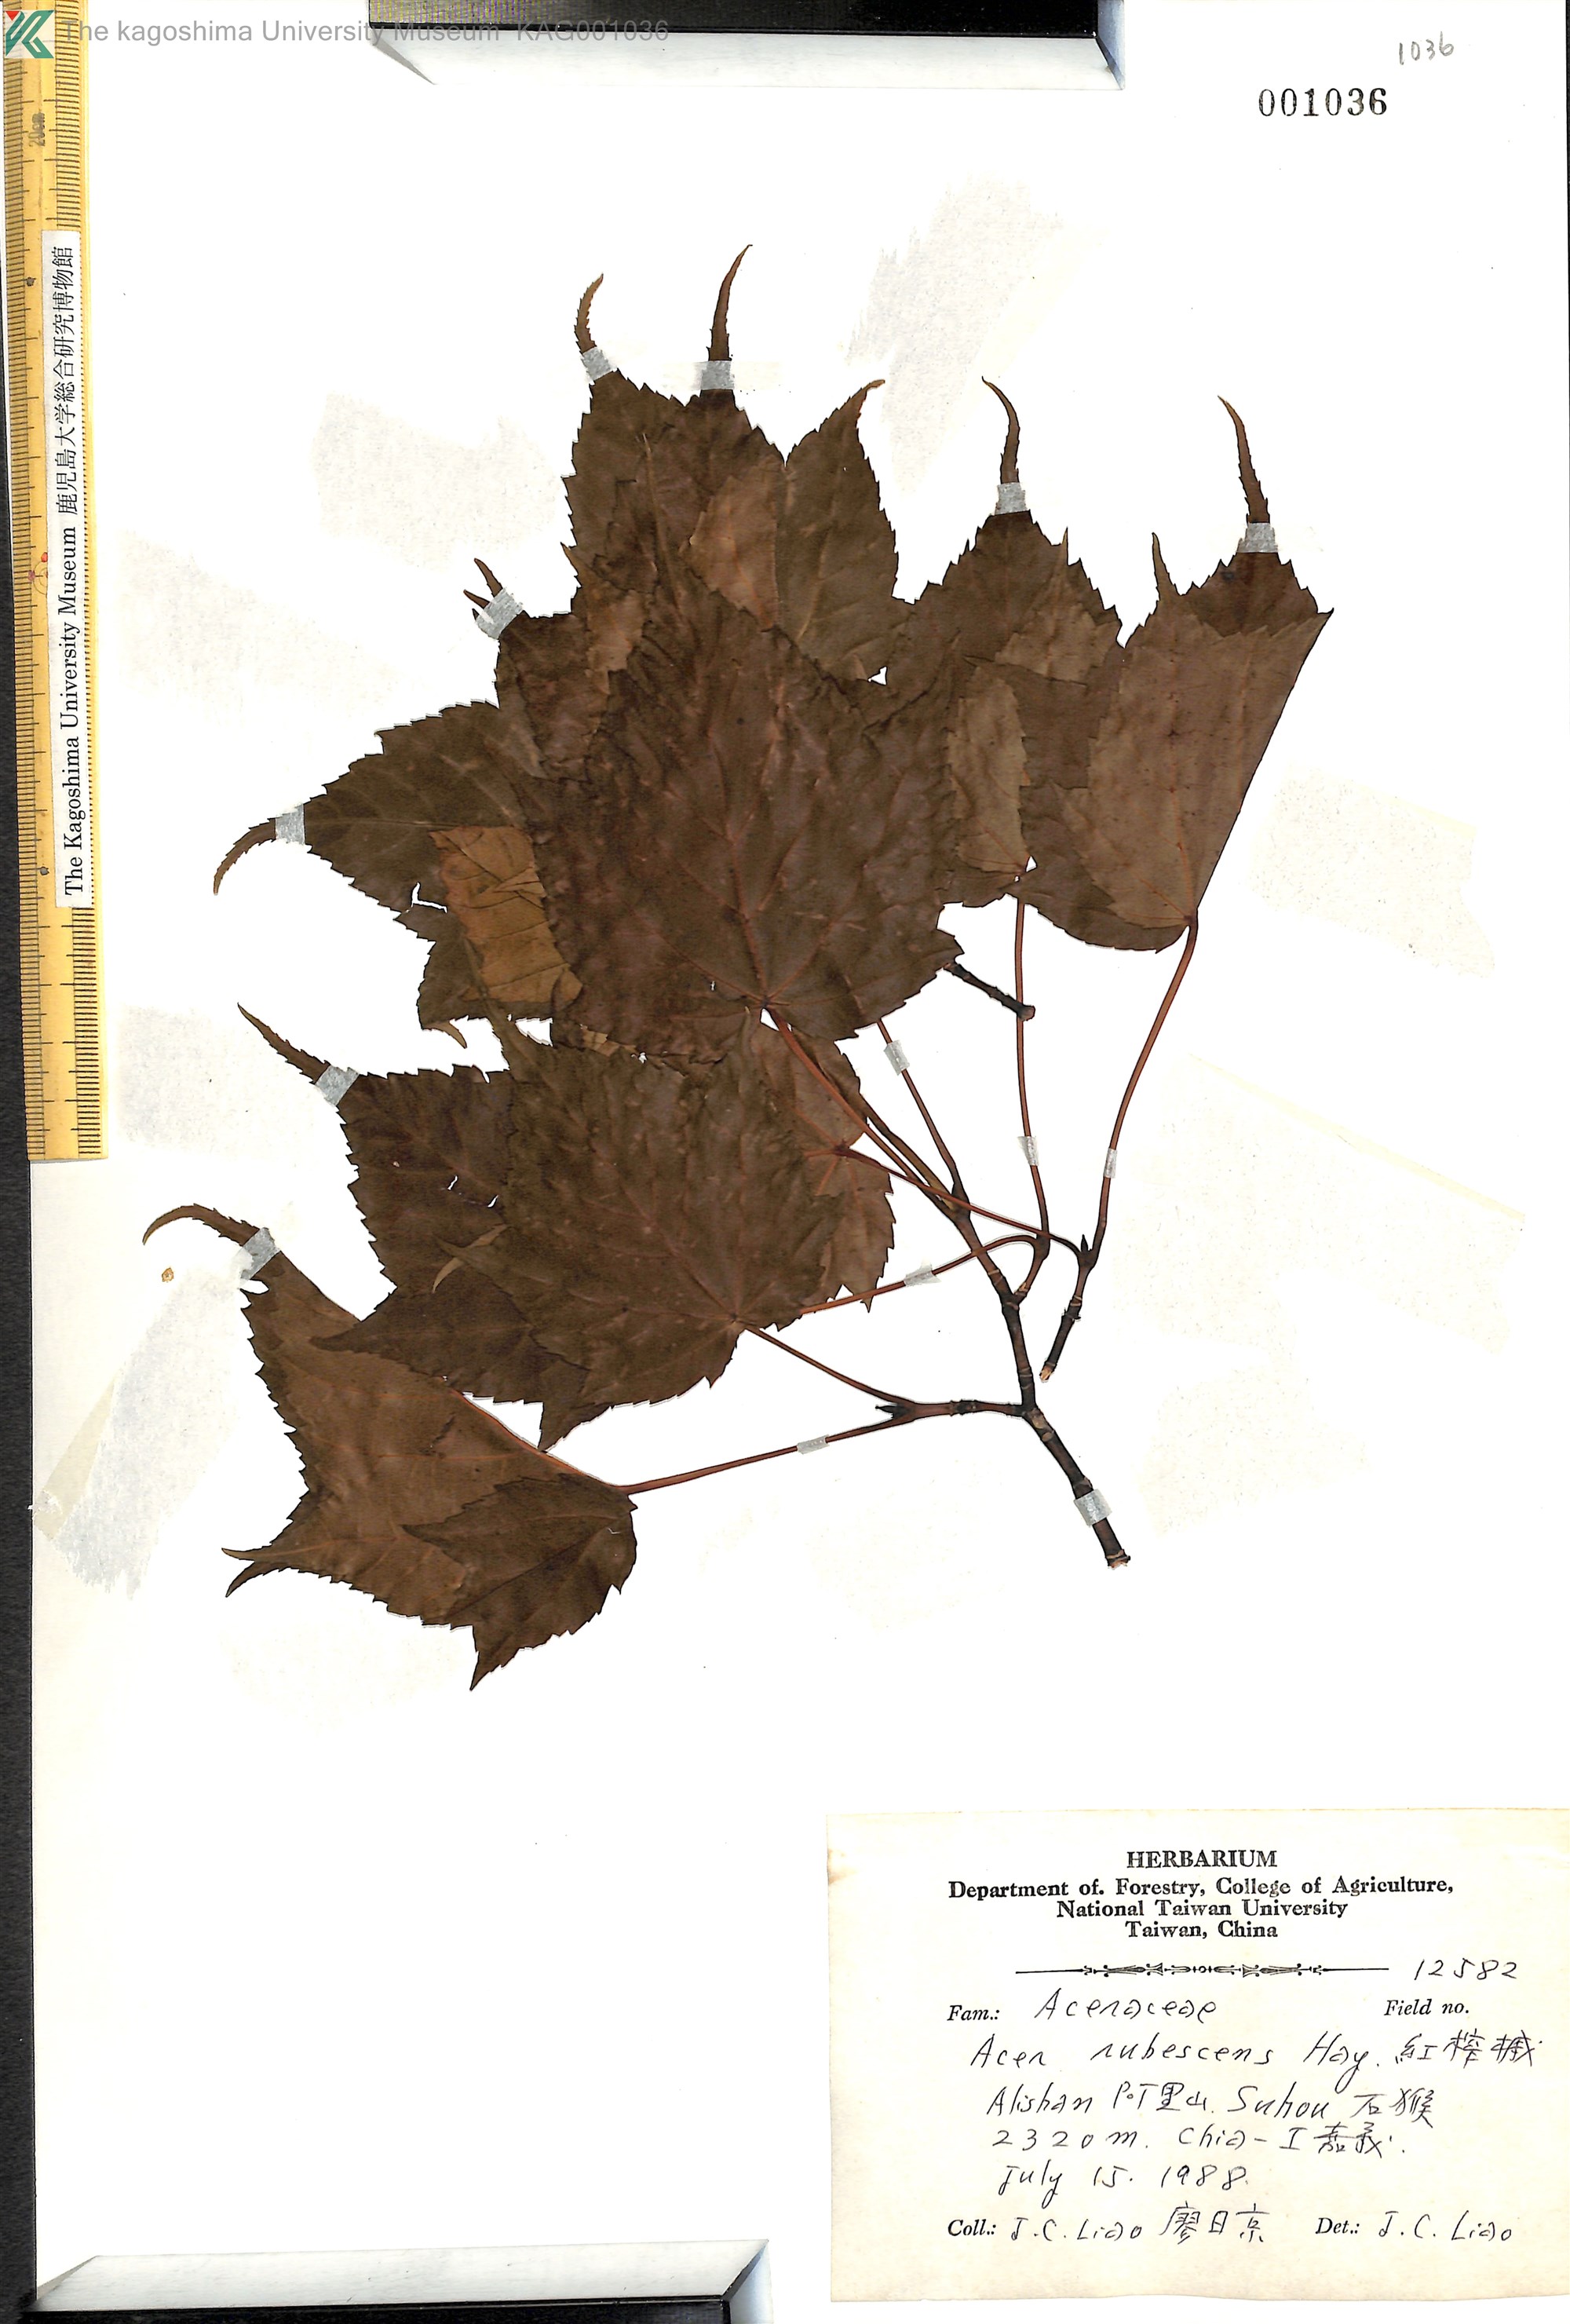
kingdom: Plantae
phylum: Tracheophyta
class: Magnoliopsida
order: Sapindales
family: Sapindaceae
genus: Acer
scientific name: Acer caudatifolium
